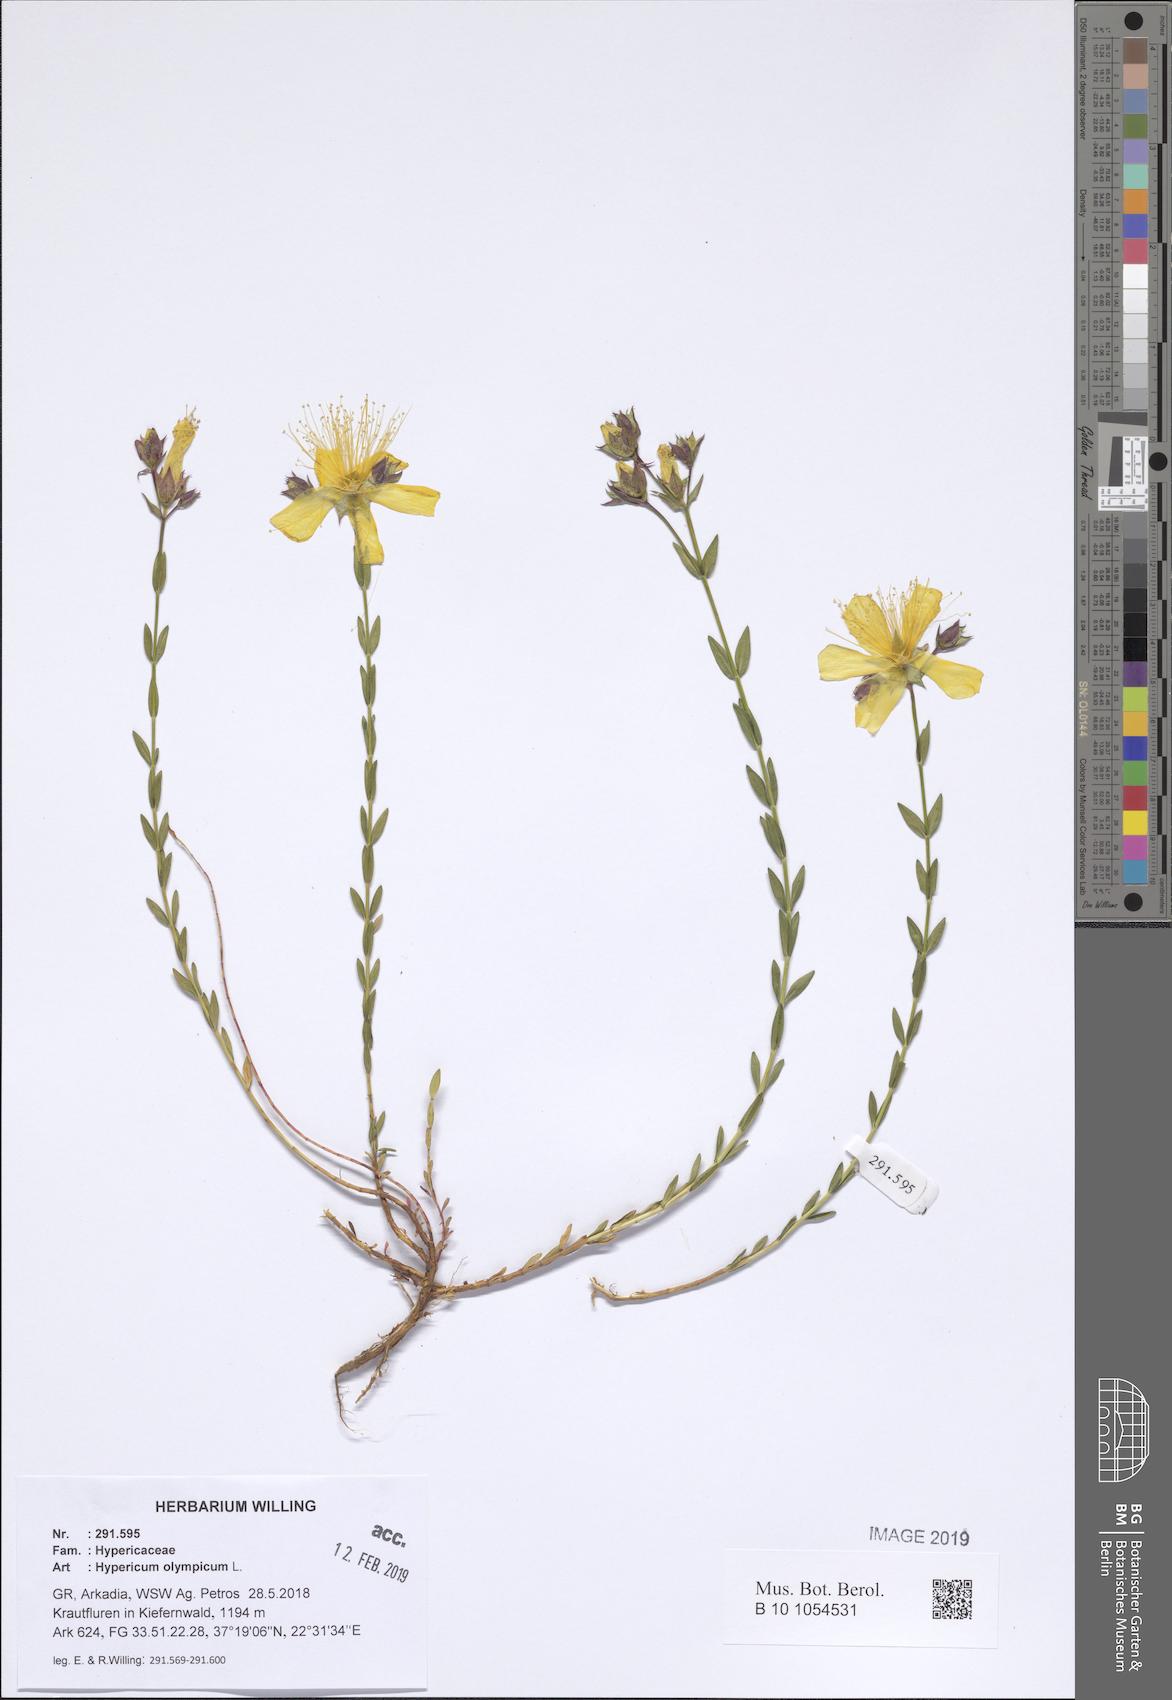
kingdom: Plantae
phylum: Tracheophyta
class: Magnoliopsida
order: Malpighiales
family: Hypericaceae
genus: Hypericum
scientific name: Hypericum olympicum
